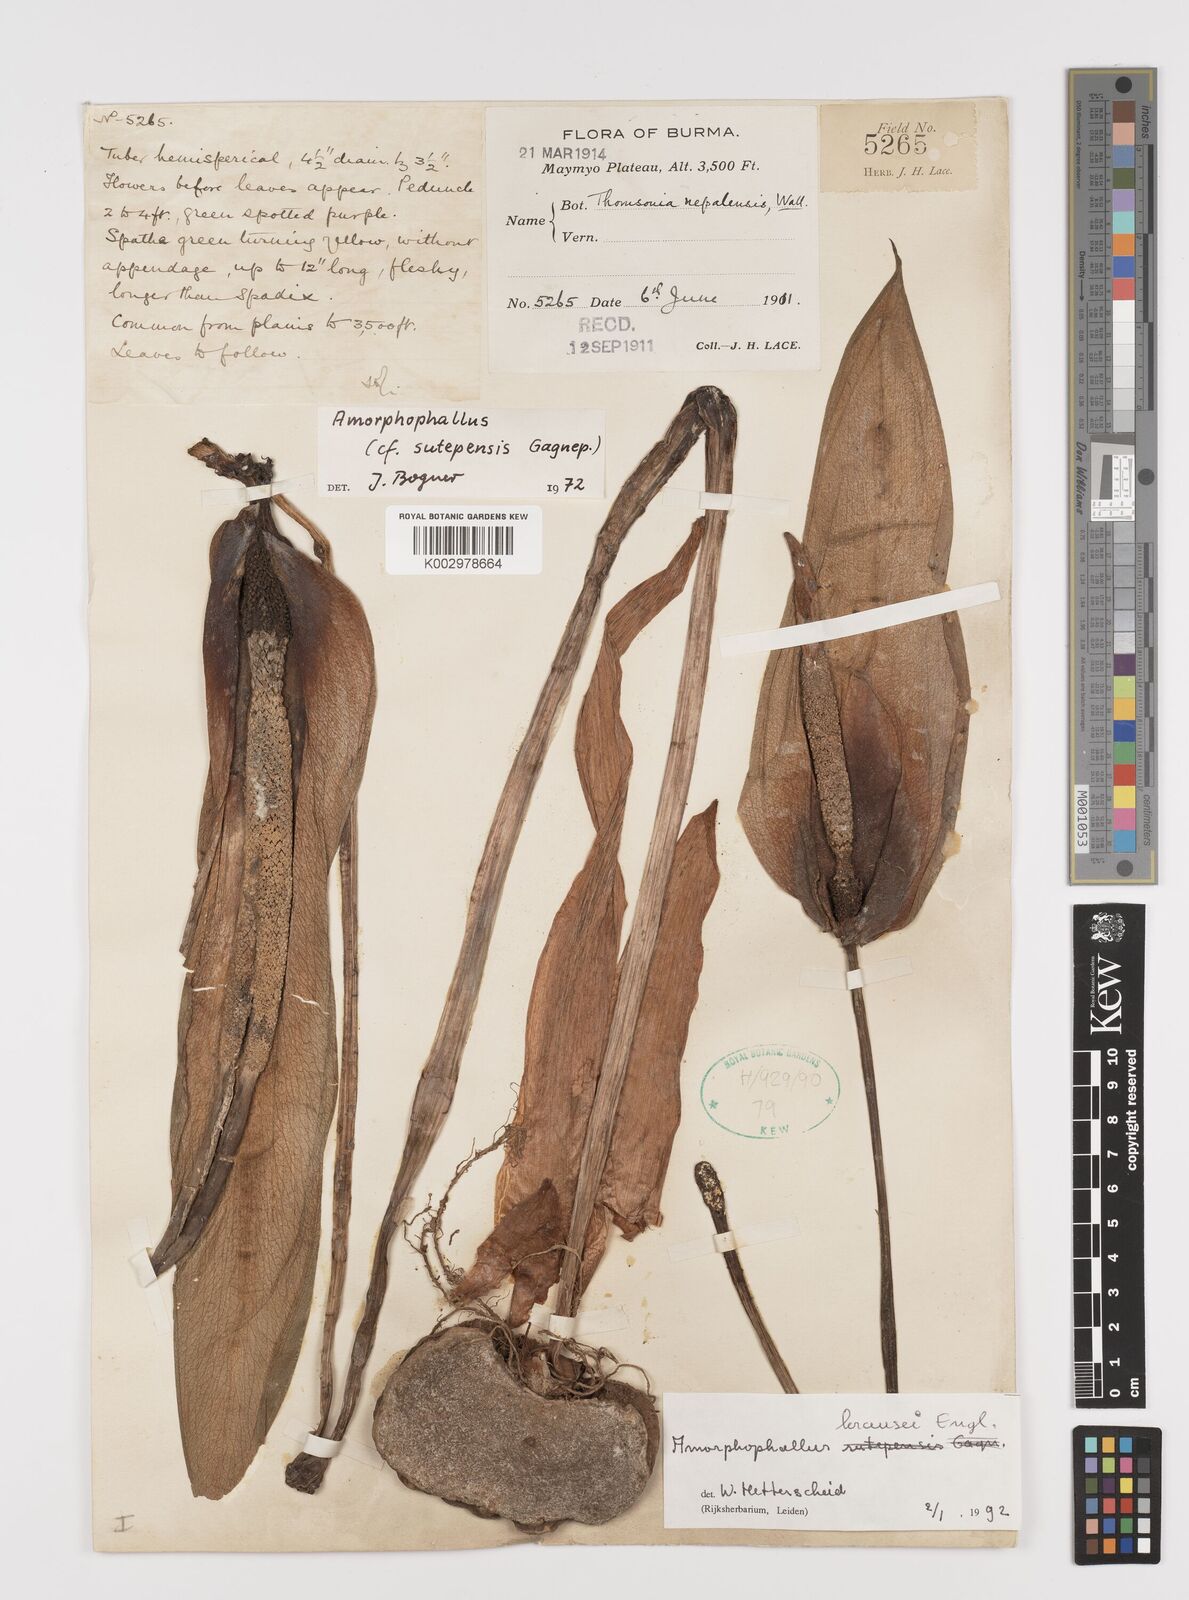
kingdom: Plantae
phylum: Tracheophyta
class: Liliopsida
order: Alismatales
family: Araceae
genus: Amorphophallus
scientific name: Amorphophallus krausei
